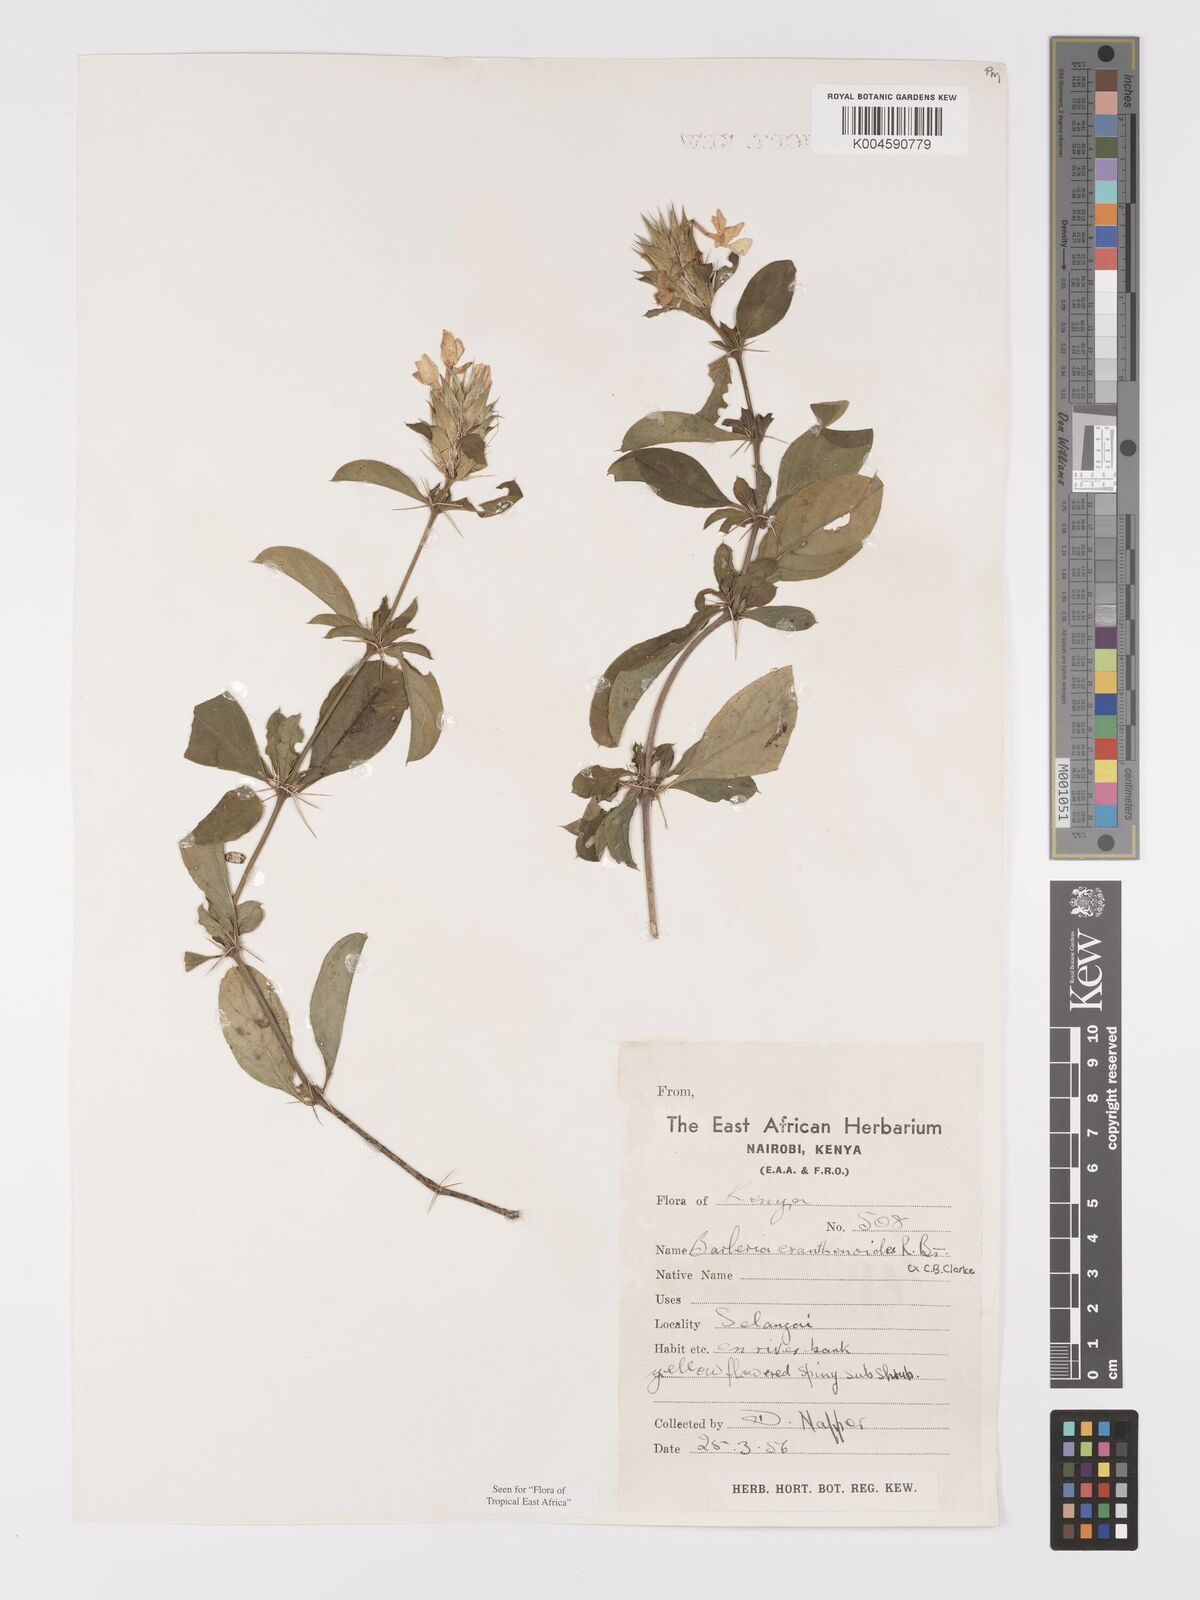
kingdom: Plantae
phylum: Tracheophyta
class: Magnoliopsida
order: Lamiales
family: Acanthaceae
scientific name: Acanthaceae
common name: Acanthaceae
